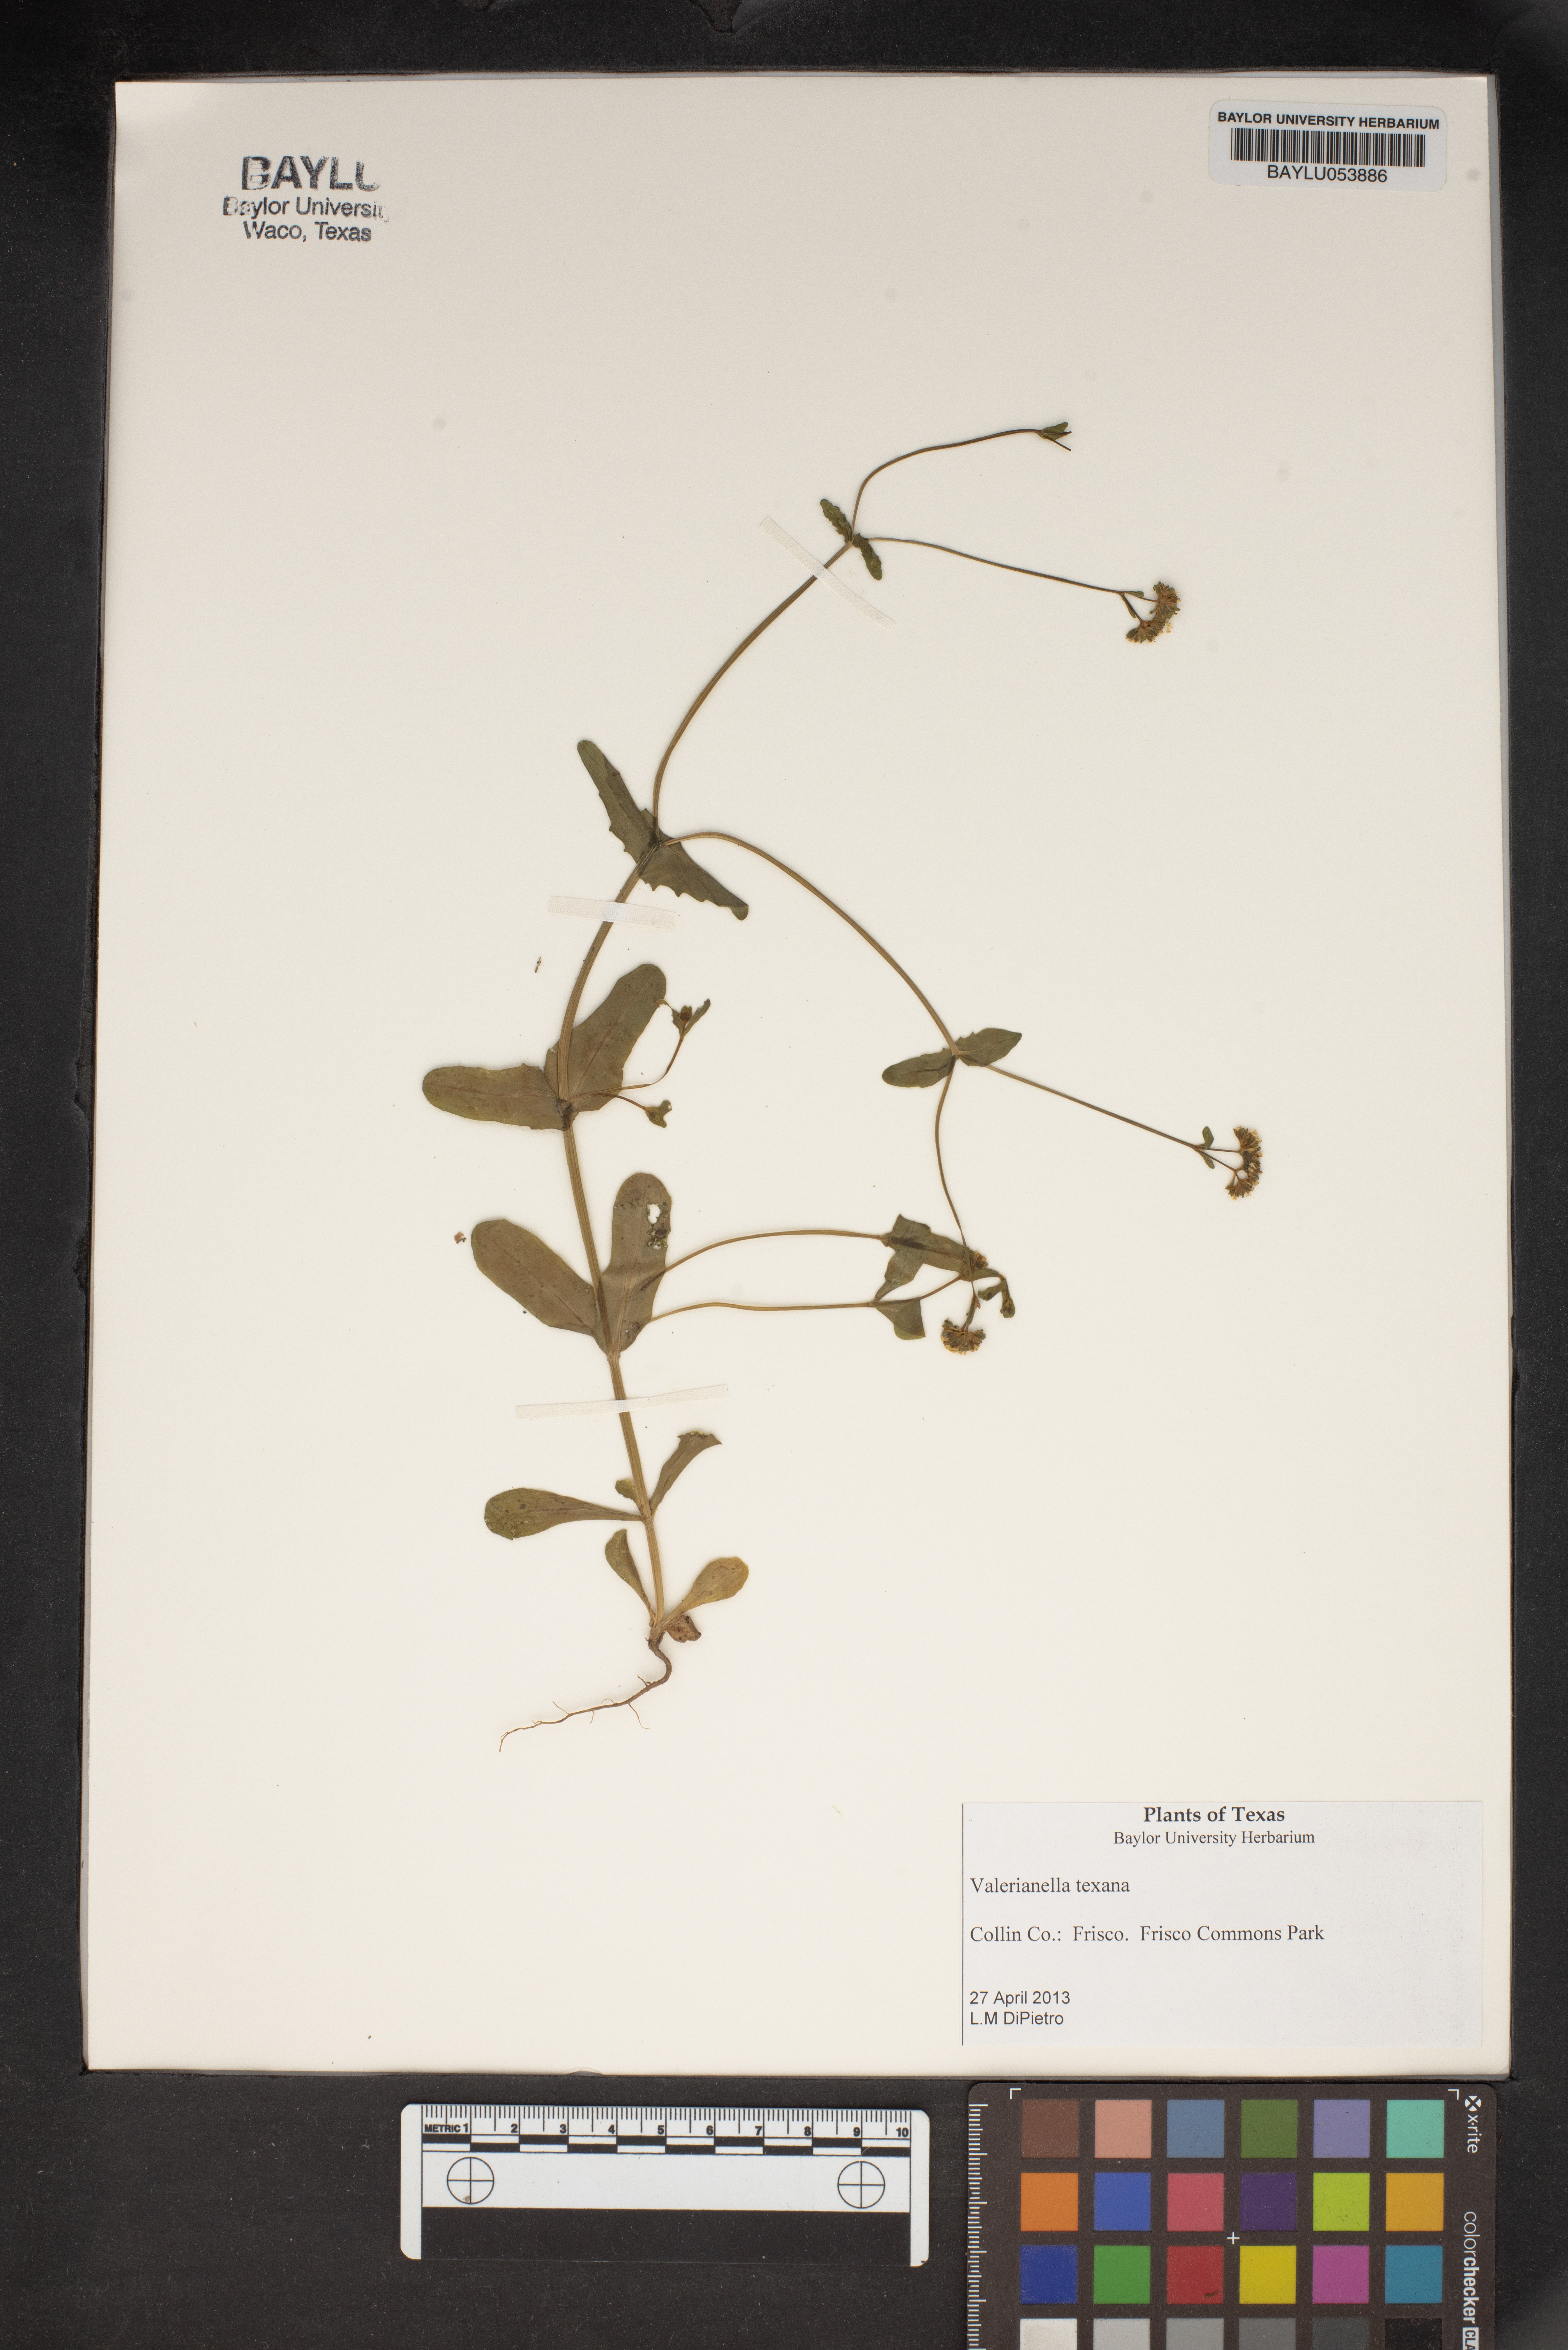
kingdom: Plantae
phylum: Tracheophyta
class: Magnoliopsida
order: Dipsacales
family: Caprifoliaceae
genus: Valerianella
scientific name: Valerianella texana
